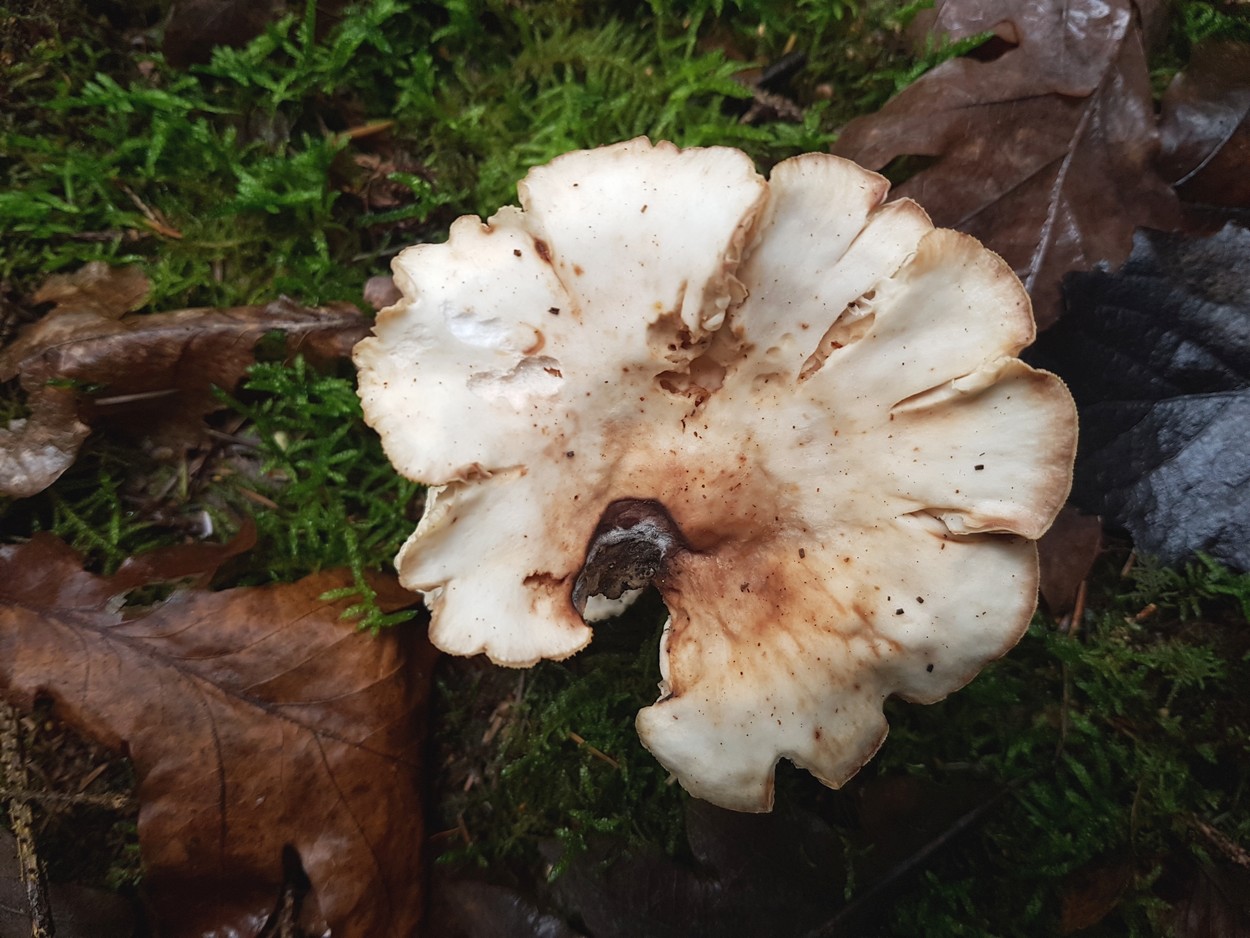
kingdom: Fungi
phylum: Basidiomycota
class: Agaricomycetes
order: Agaricales
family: Omphalotaceae
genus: Rhodocollybia
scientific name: Rhodocollybia maculata
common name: plettet fladhat
